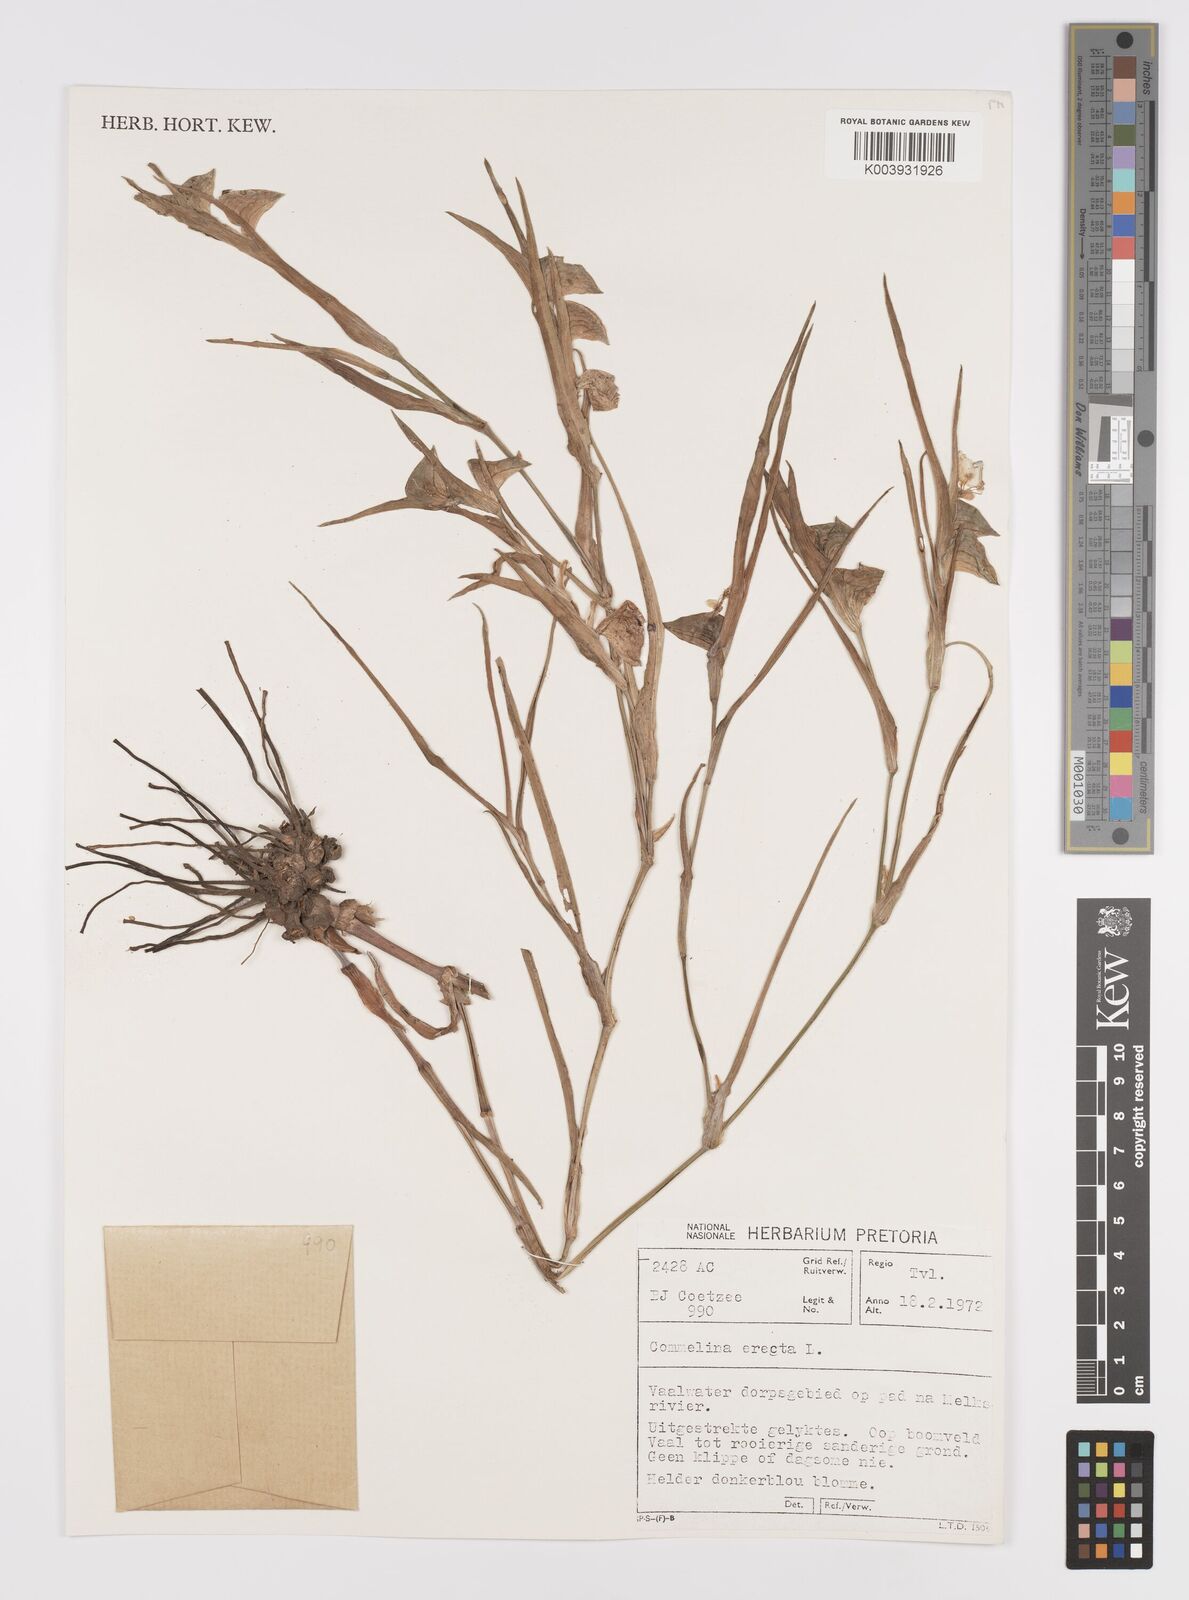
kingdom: Plantae
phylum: Tracheophyta
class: Liliopsida
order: Commelinales
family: Commelinaceae
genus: Commelina
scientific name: Commelina erecta
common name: Blousel blommetjie
